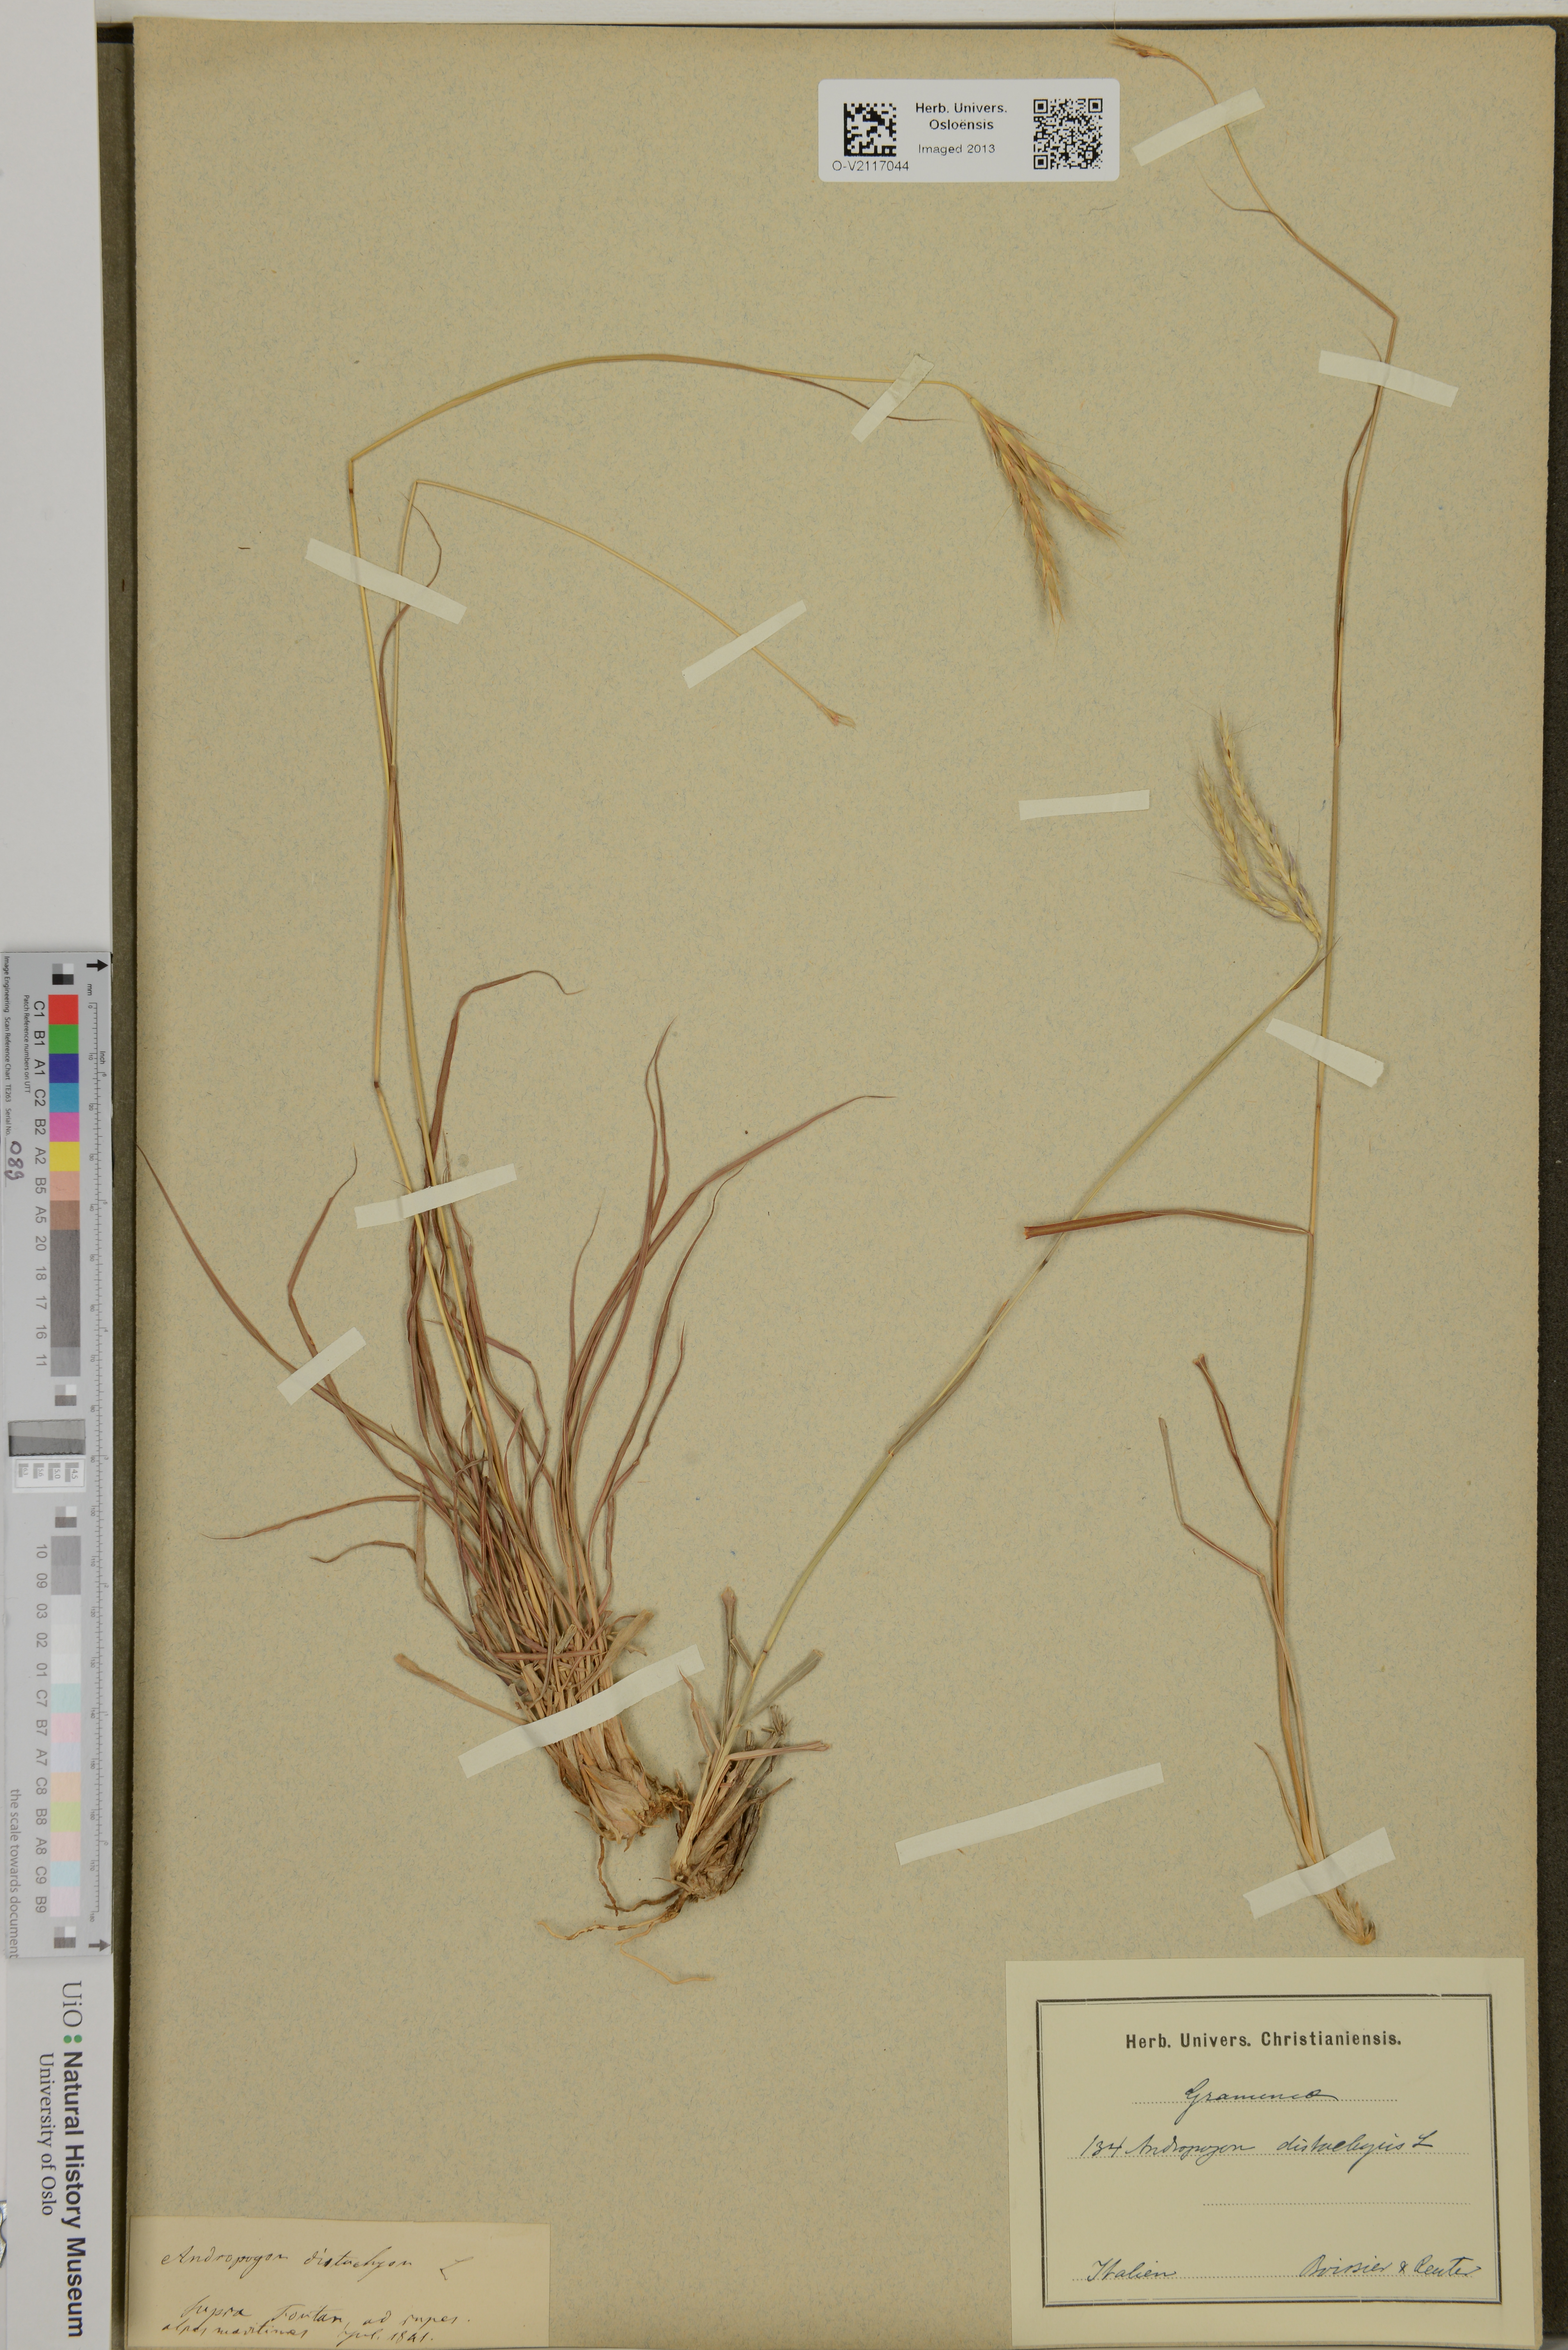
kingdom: Plantae
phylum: Tracheophyta
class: Liliopsida
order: Poales
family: Poaceae
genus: Andropogon
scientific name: Andropogon distachyos
